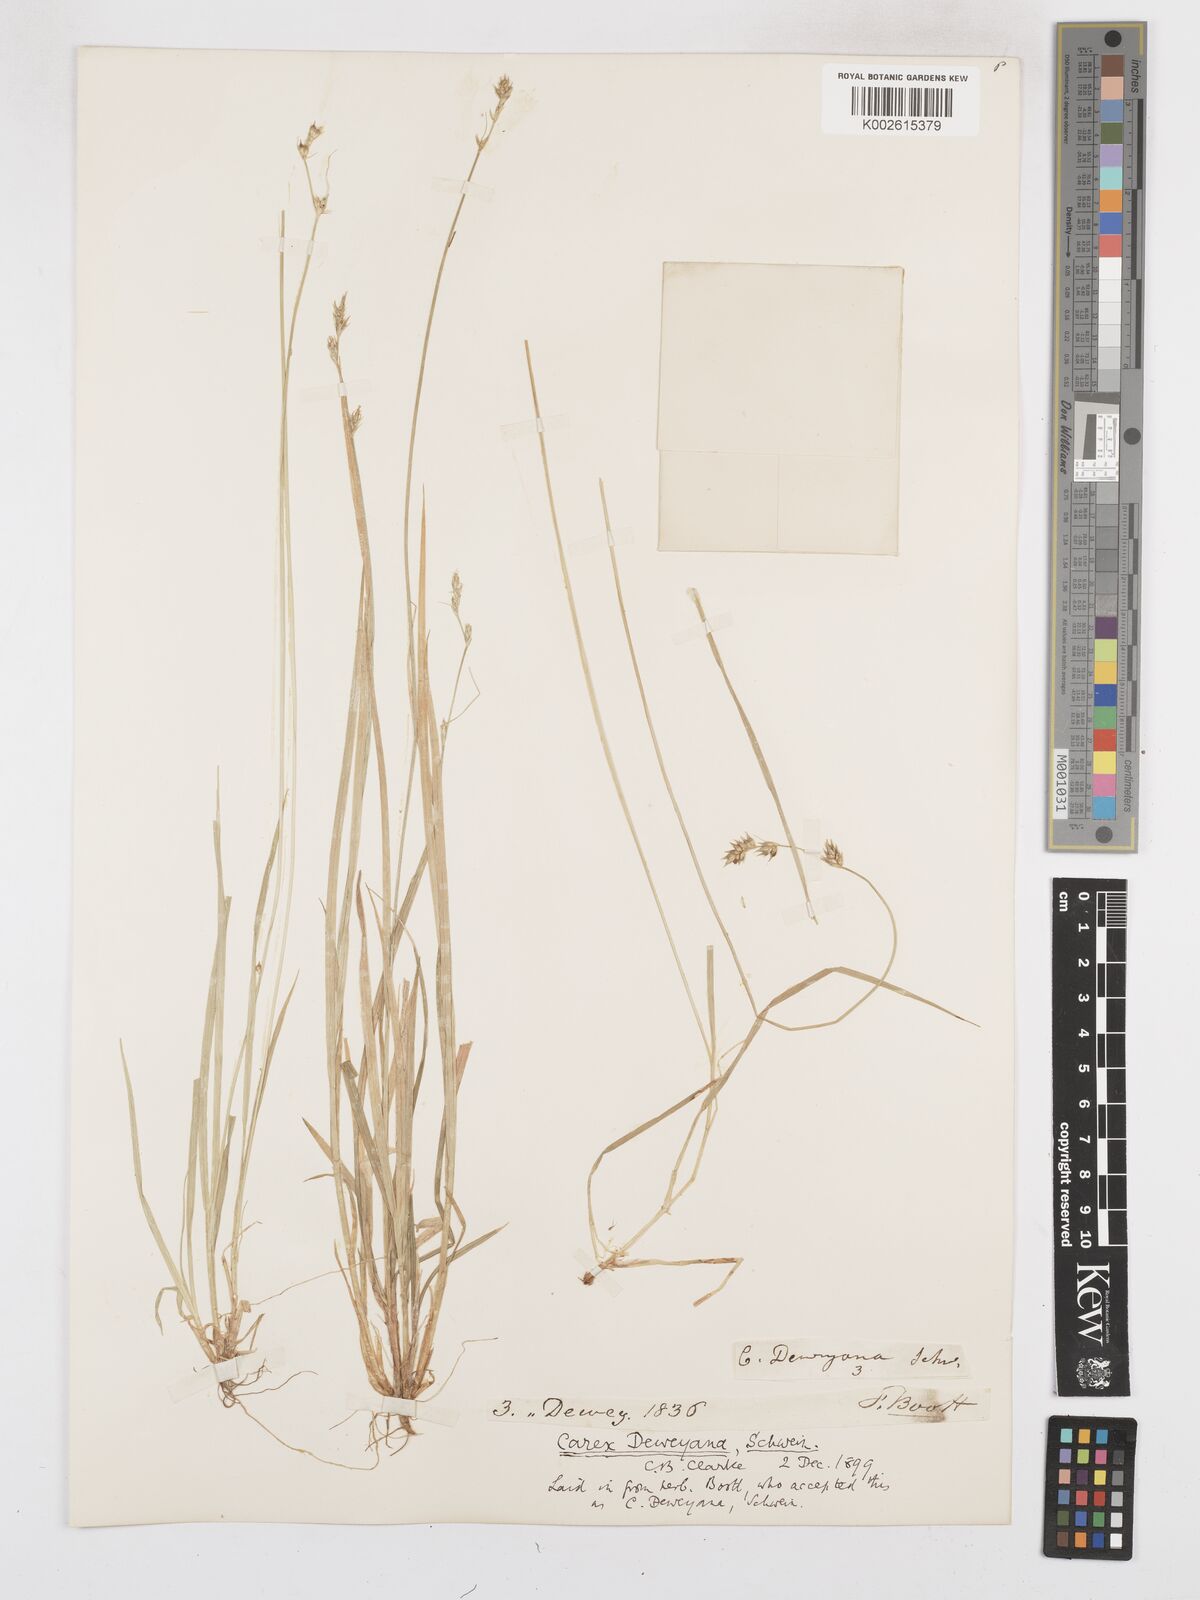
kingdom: Plantae
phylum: Tracheophyta
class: Liliopsida
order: Poales
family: Cyperaceae
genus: Carex
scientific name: Carex deweyana
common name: Dewey's sedge
